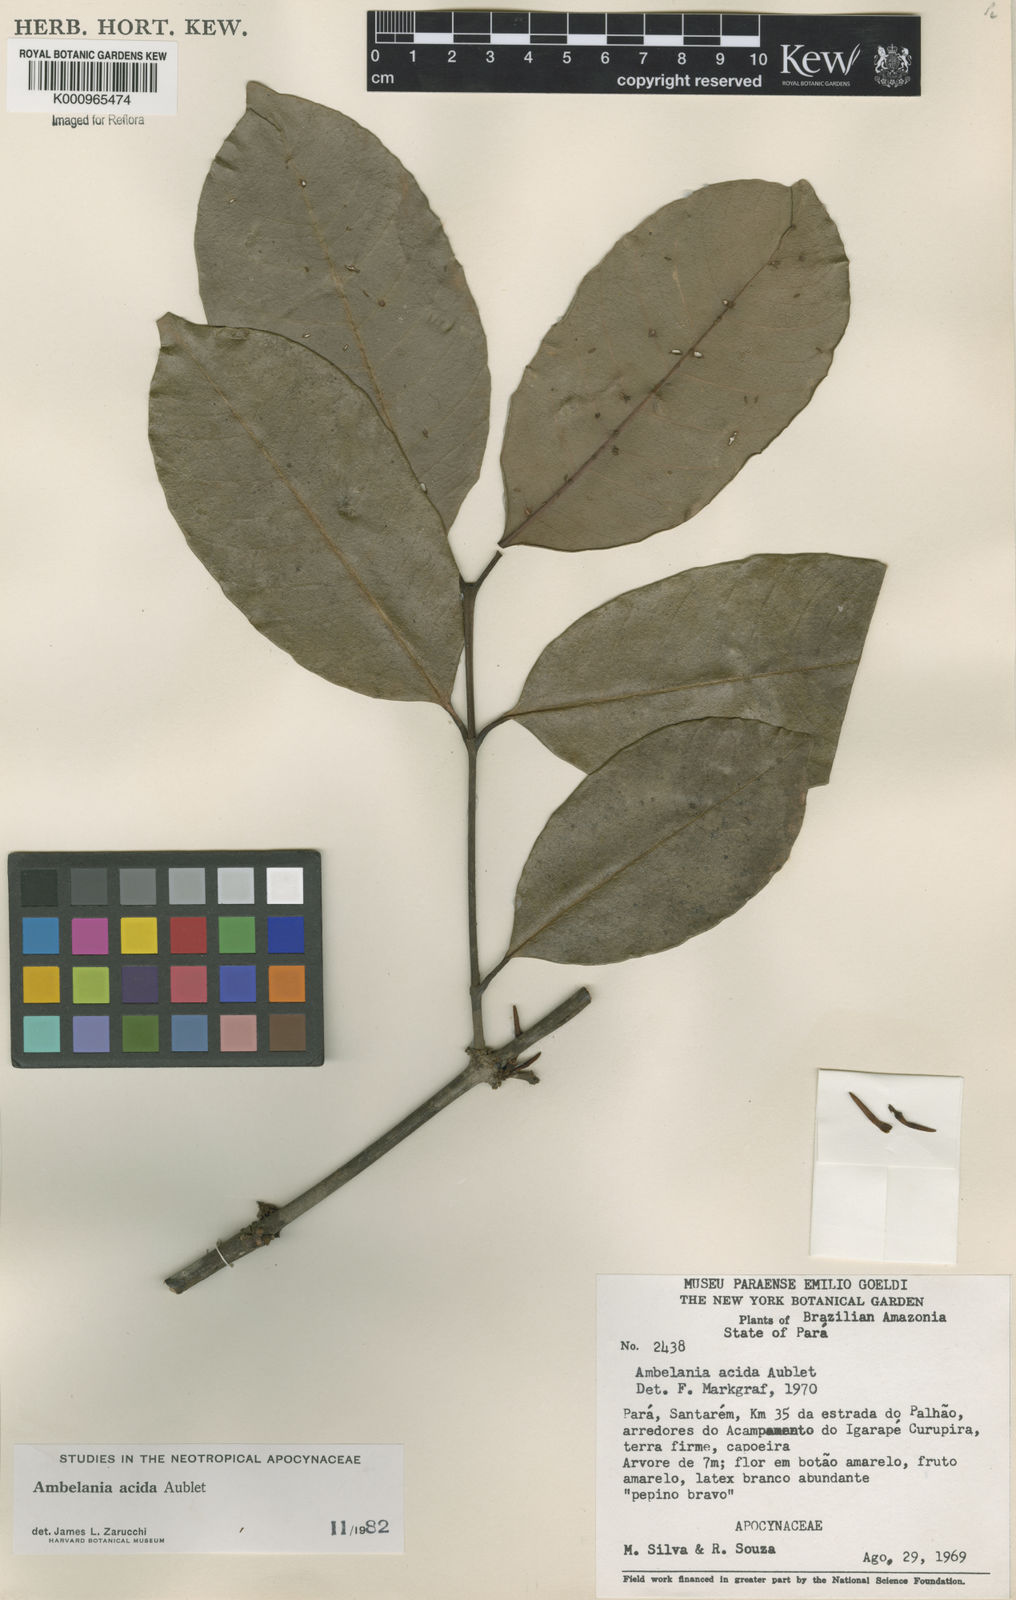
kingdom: Plantae
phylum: Tracheophyta
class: Magnoliopsida
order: Gentianales
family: Apocynaceae
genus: Ambelania
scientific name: Ambelania acida
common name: Bagasse
